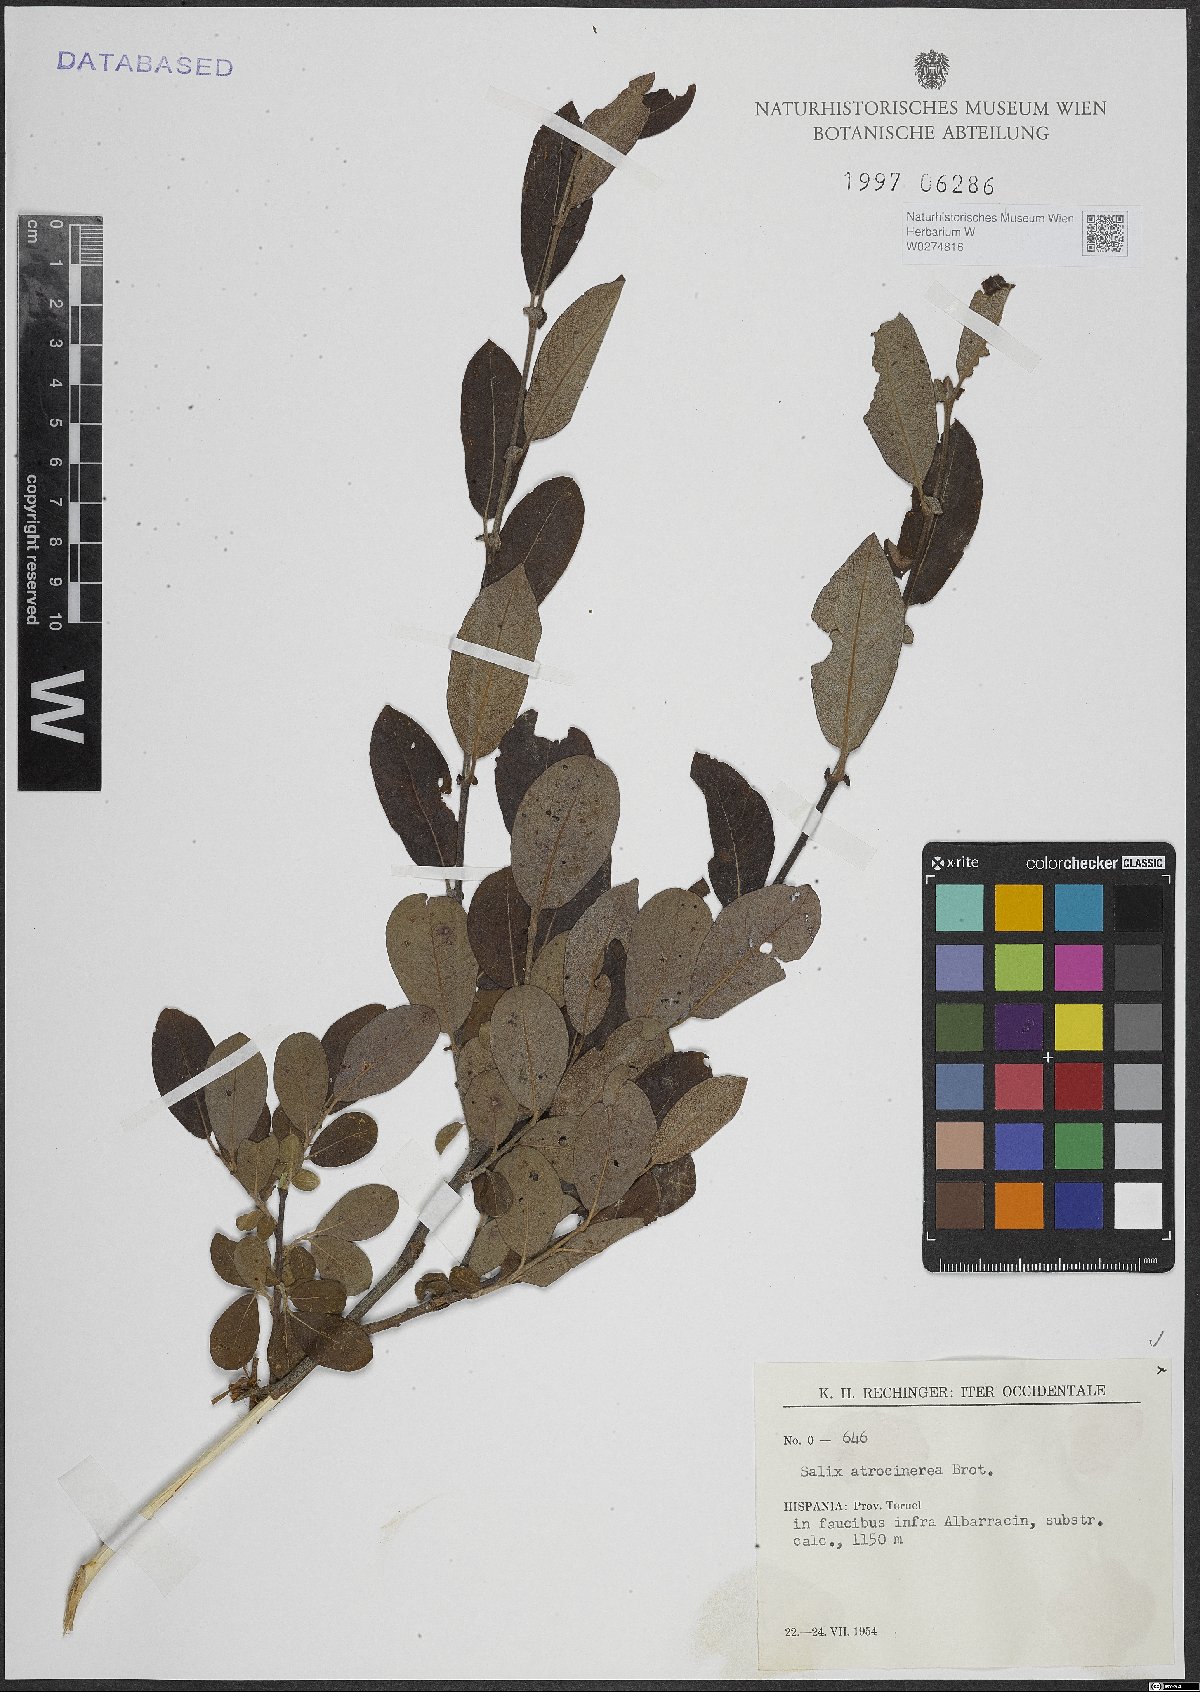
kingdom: Plantae
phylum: Tracheophyta
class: Magnoliopsida
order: Malpighiales
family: Salicaceae
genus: Salix
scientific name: Salix atrocinerea
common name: Rusty willow
